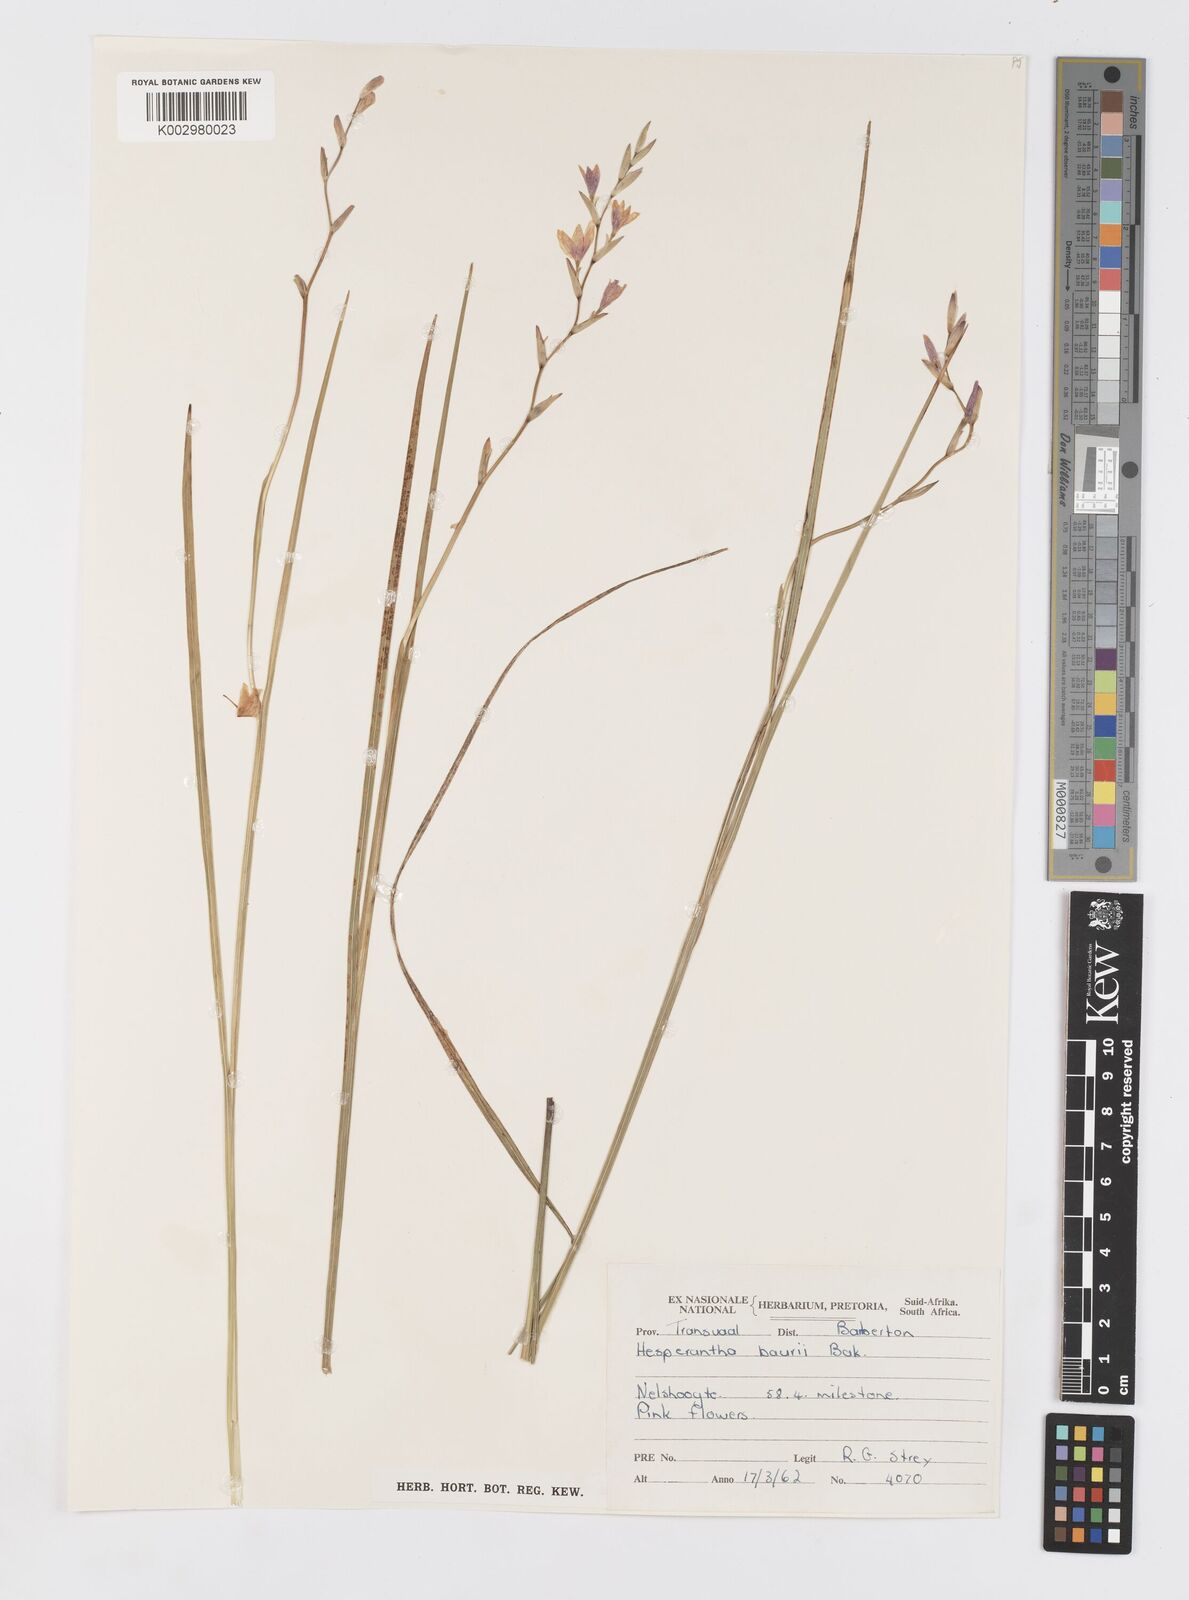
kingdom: Plantae
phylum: Tracheophyta
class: Liliopsida
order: Asparagales
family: Iridaceae
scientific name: Iridaceae
